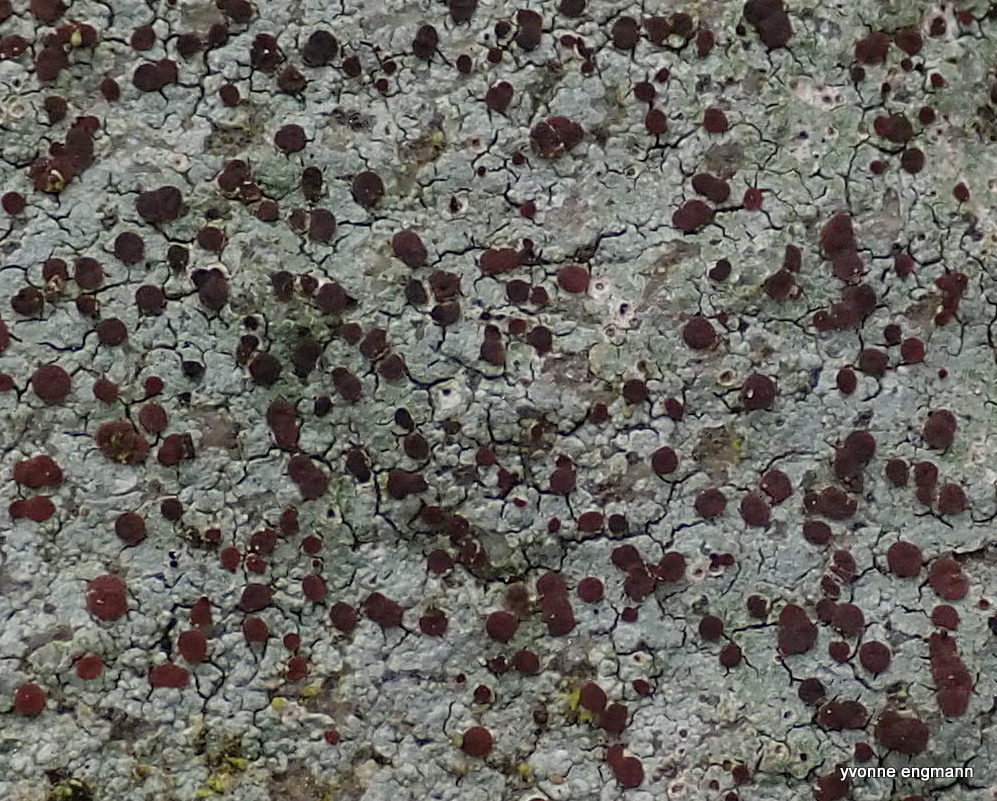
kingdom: Fungi
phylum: Ascomycota
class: Lecanoromycetes
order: Baeomycetales
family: Trapeliaceae
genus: Trapelia
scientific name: Trapelia coarctata
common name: hvidrandet brunskivelav
